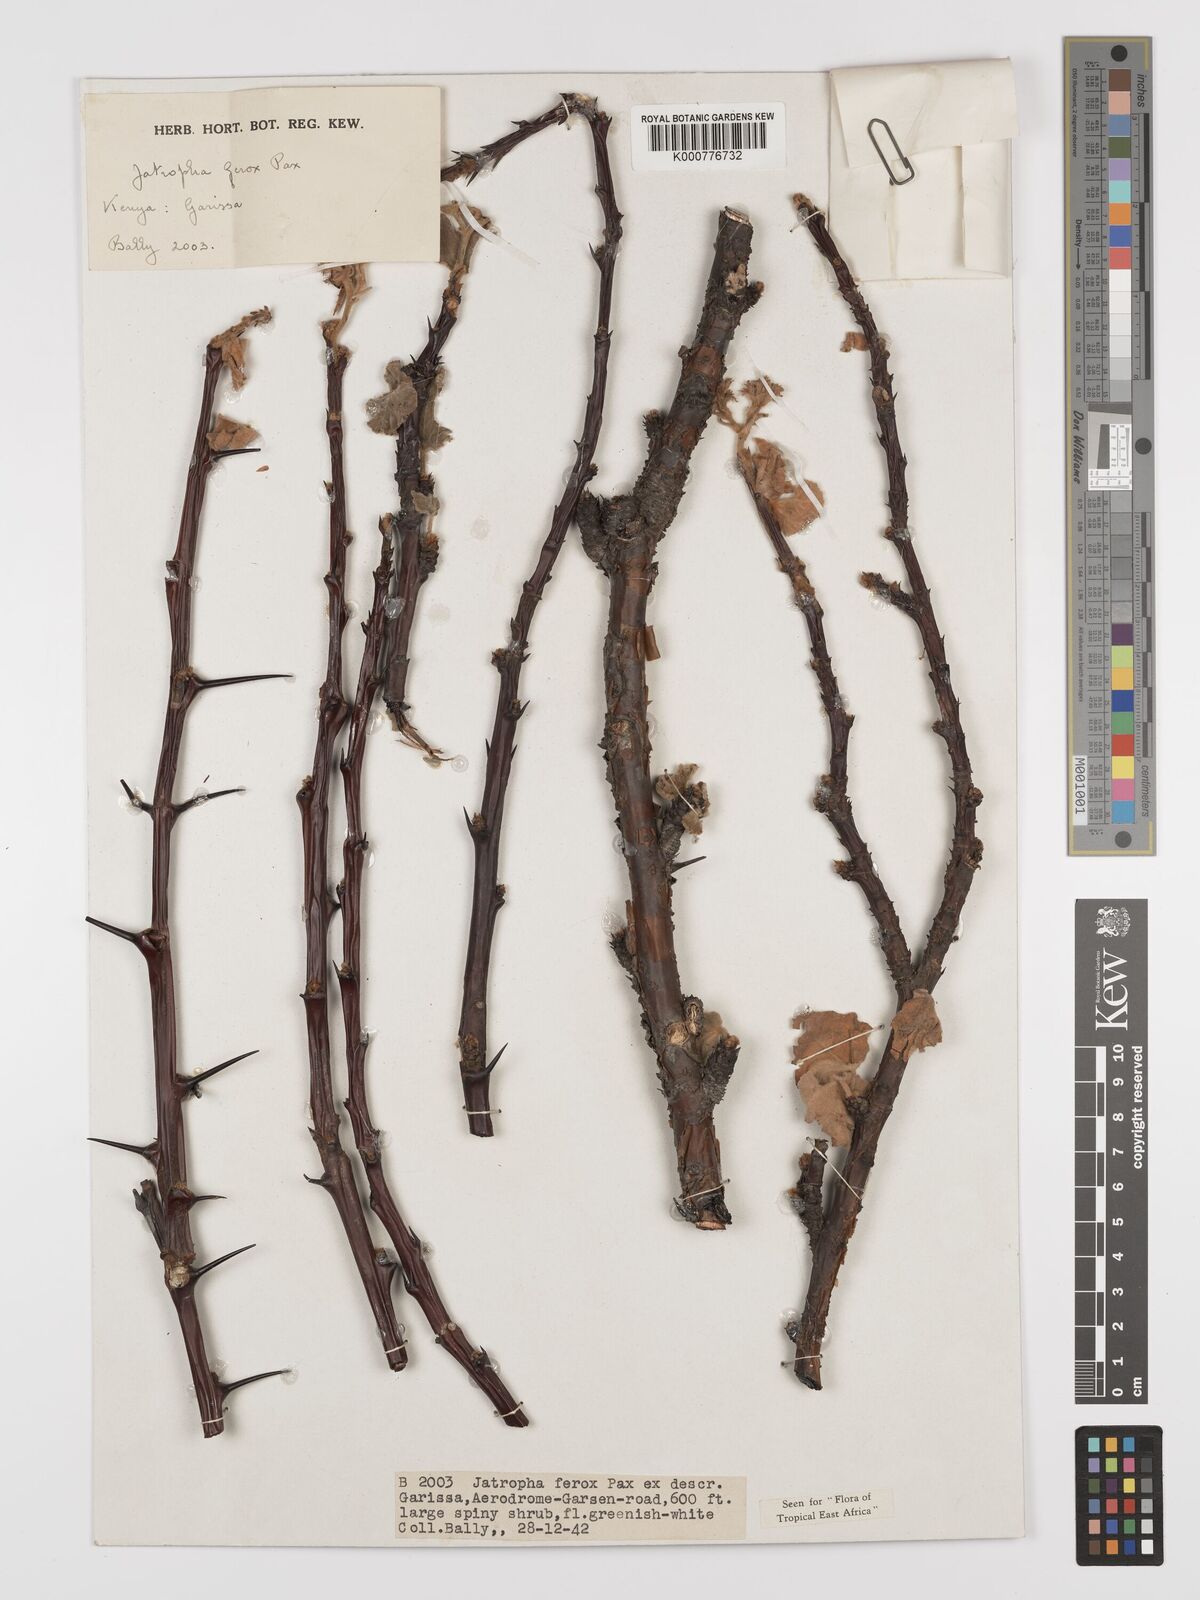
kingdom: Plantae
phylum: Tracheophyta
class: Magnoliopsida
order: Malpighiales
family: Euphorbiaceae
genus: Jatropha
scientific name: Jatropha dichtar
